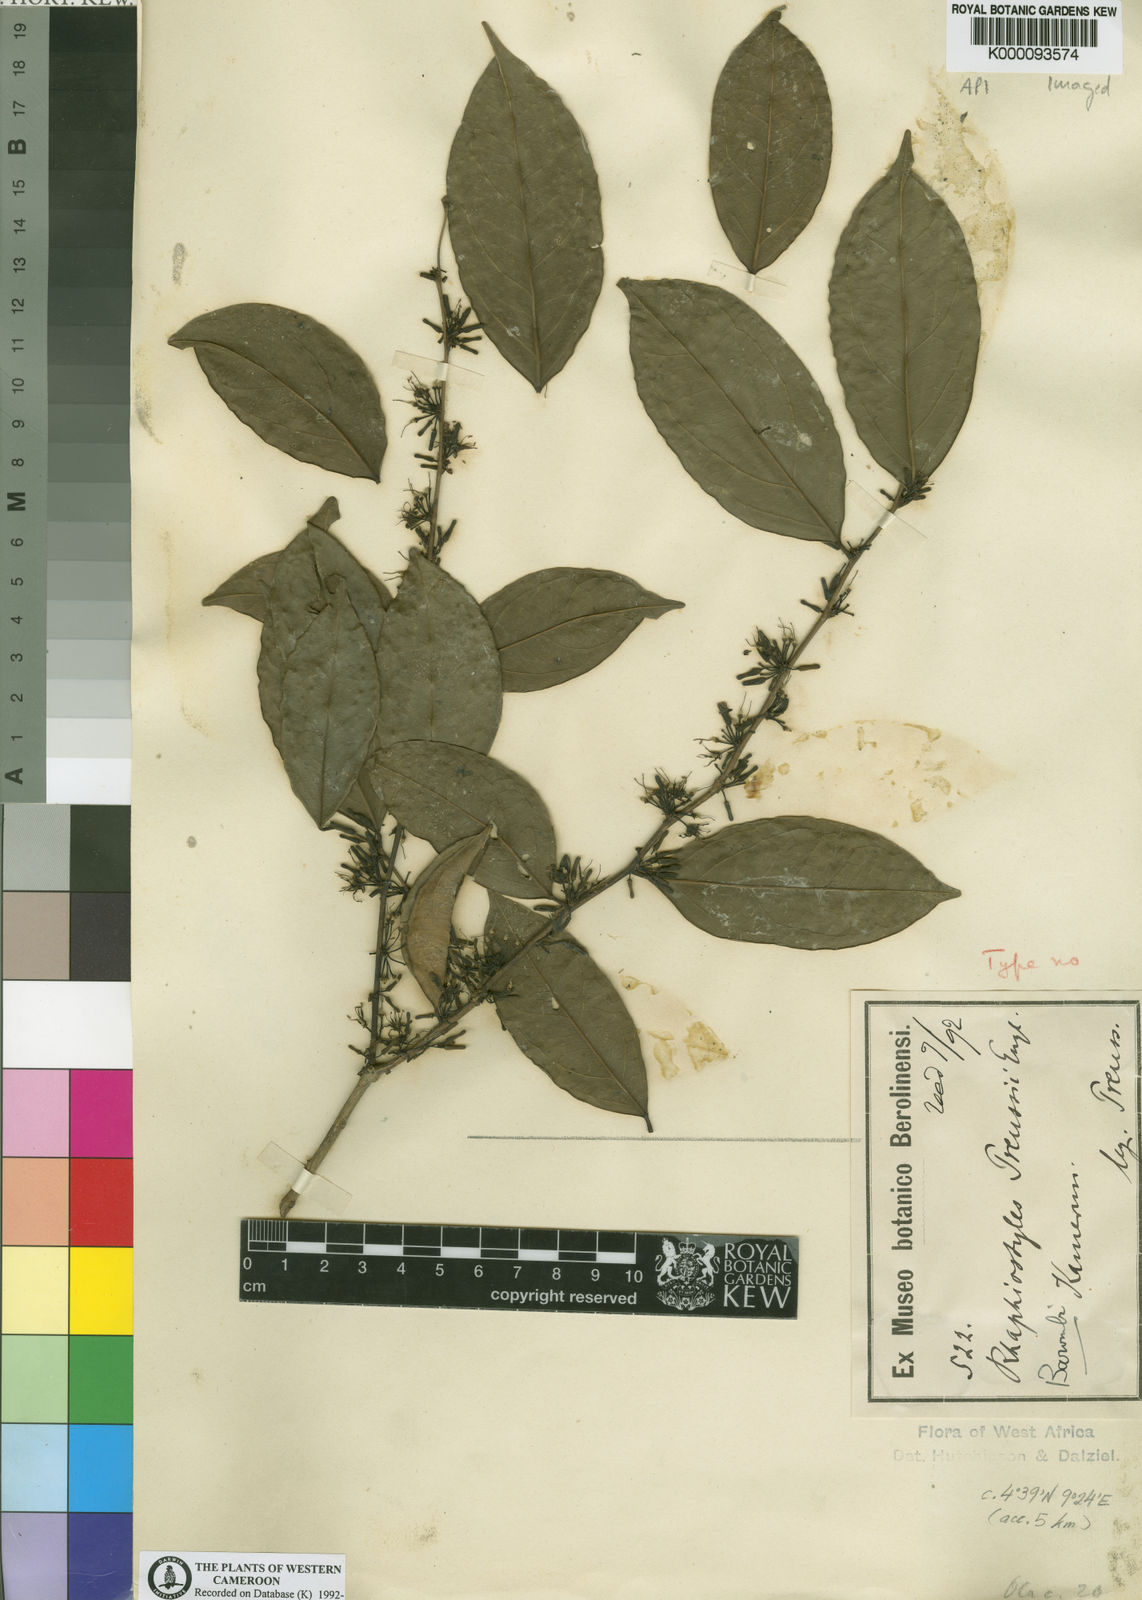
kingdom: Plantae
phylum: Tracheophyta
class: Magnoliopsida
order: Metteniusales
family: Metteniusaceae
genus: Rhaphiostylis
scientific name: Rhaphiostylis preussii
